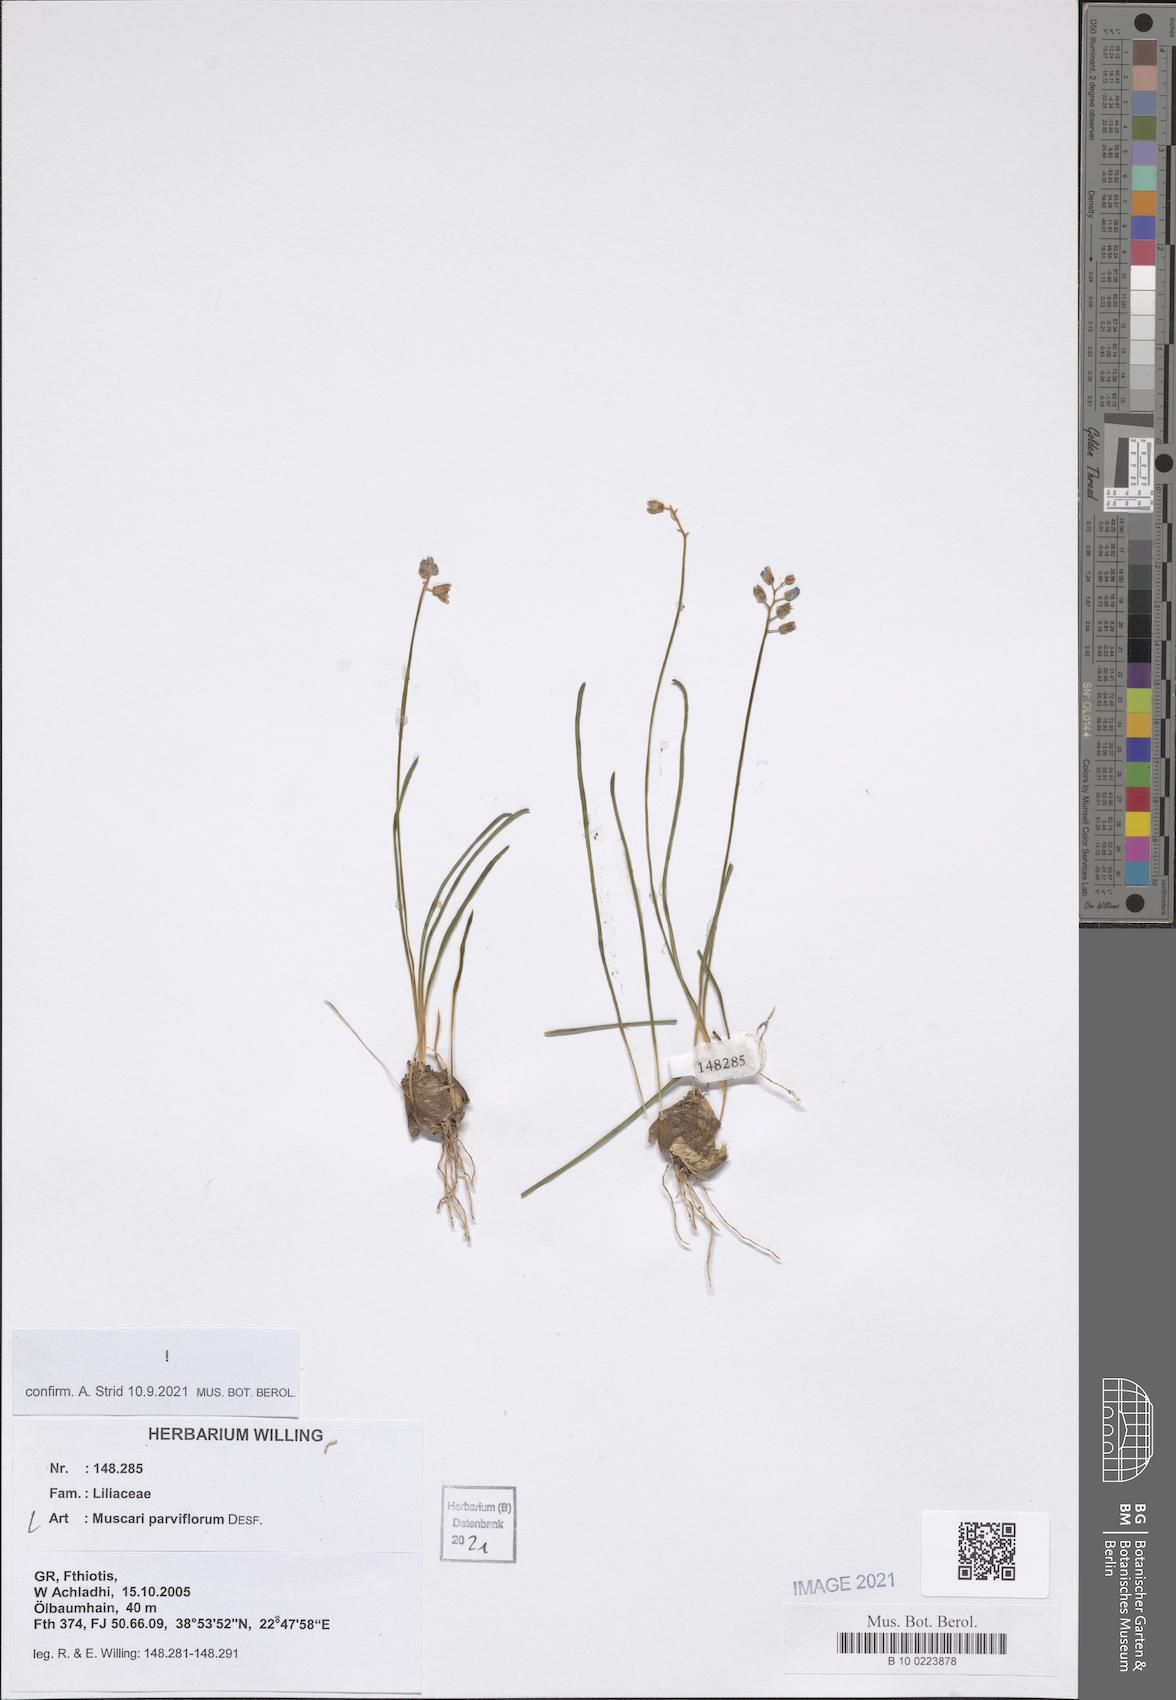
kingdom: Plantae
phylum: Tracheophyta
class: Liliopsida
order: Asparagales
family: Asparagaceae
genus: Muscari
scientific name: Muscari parviflorum
